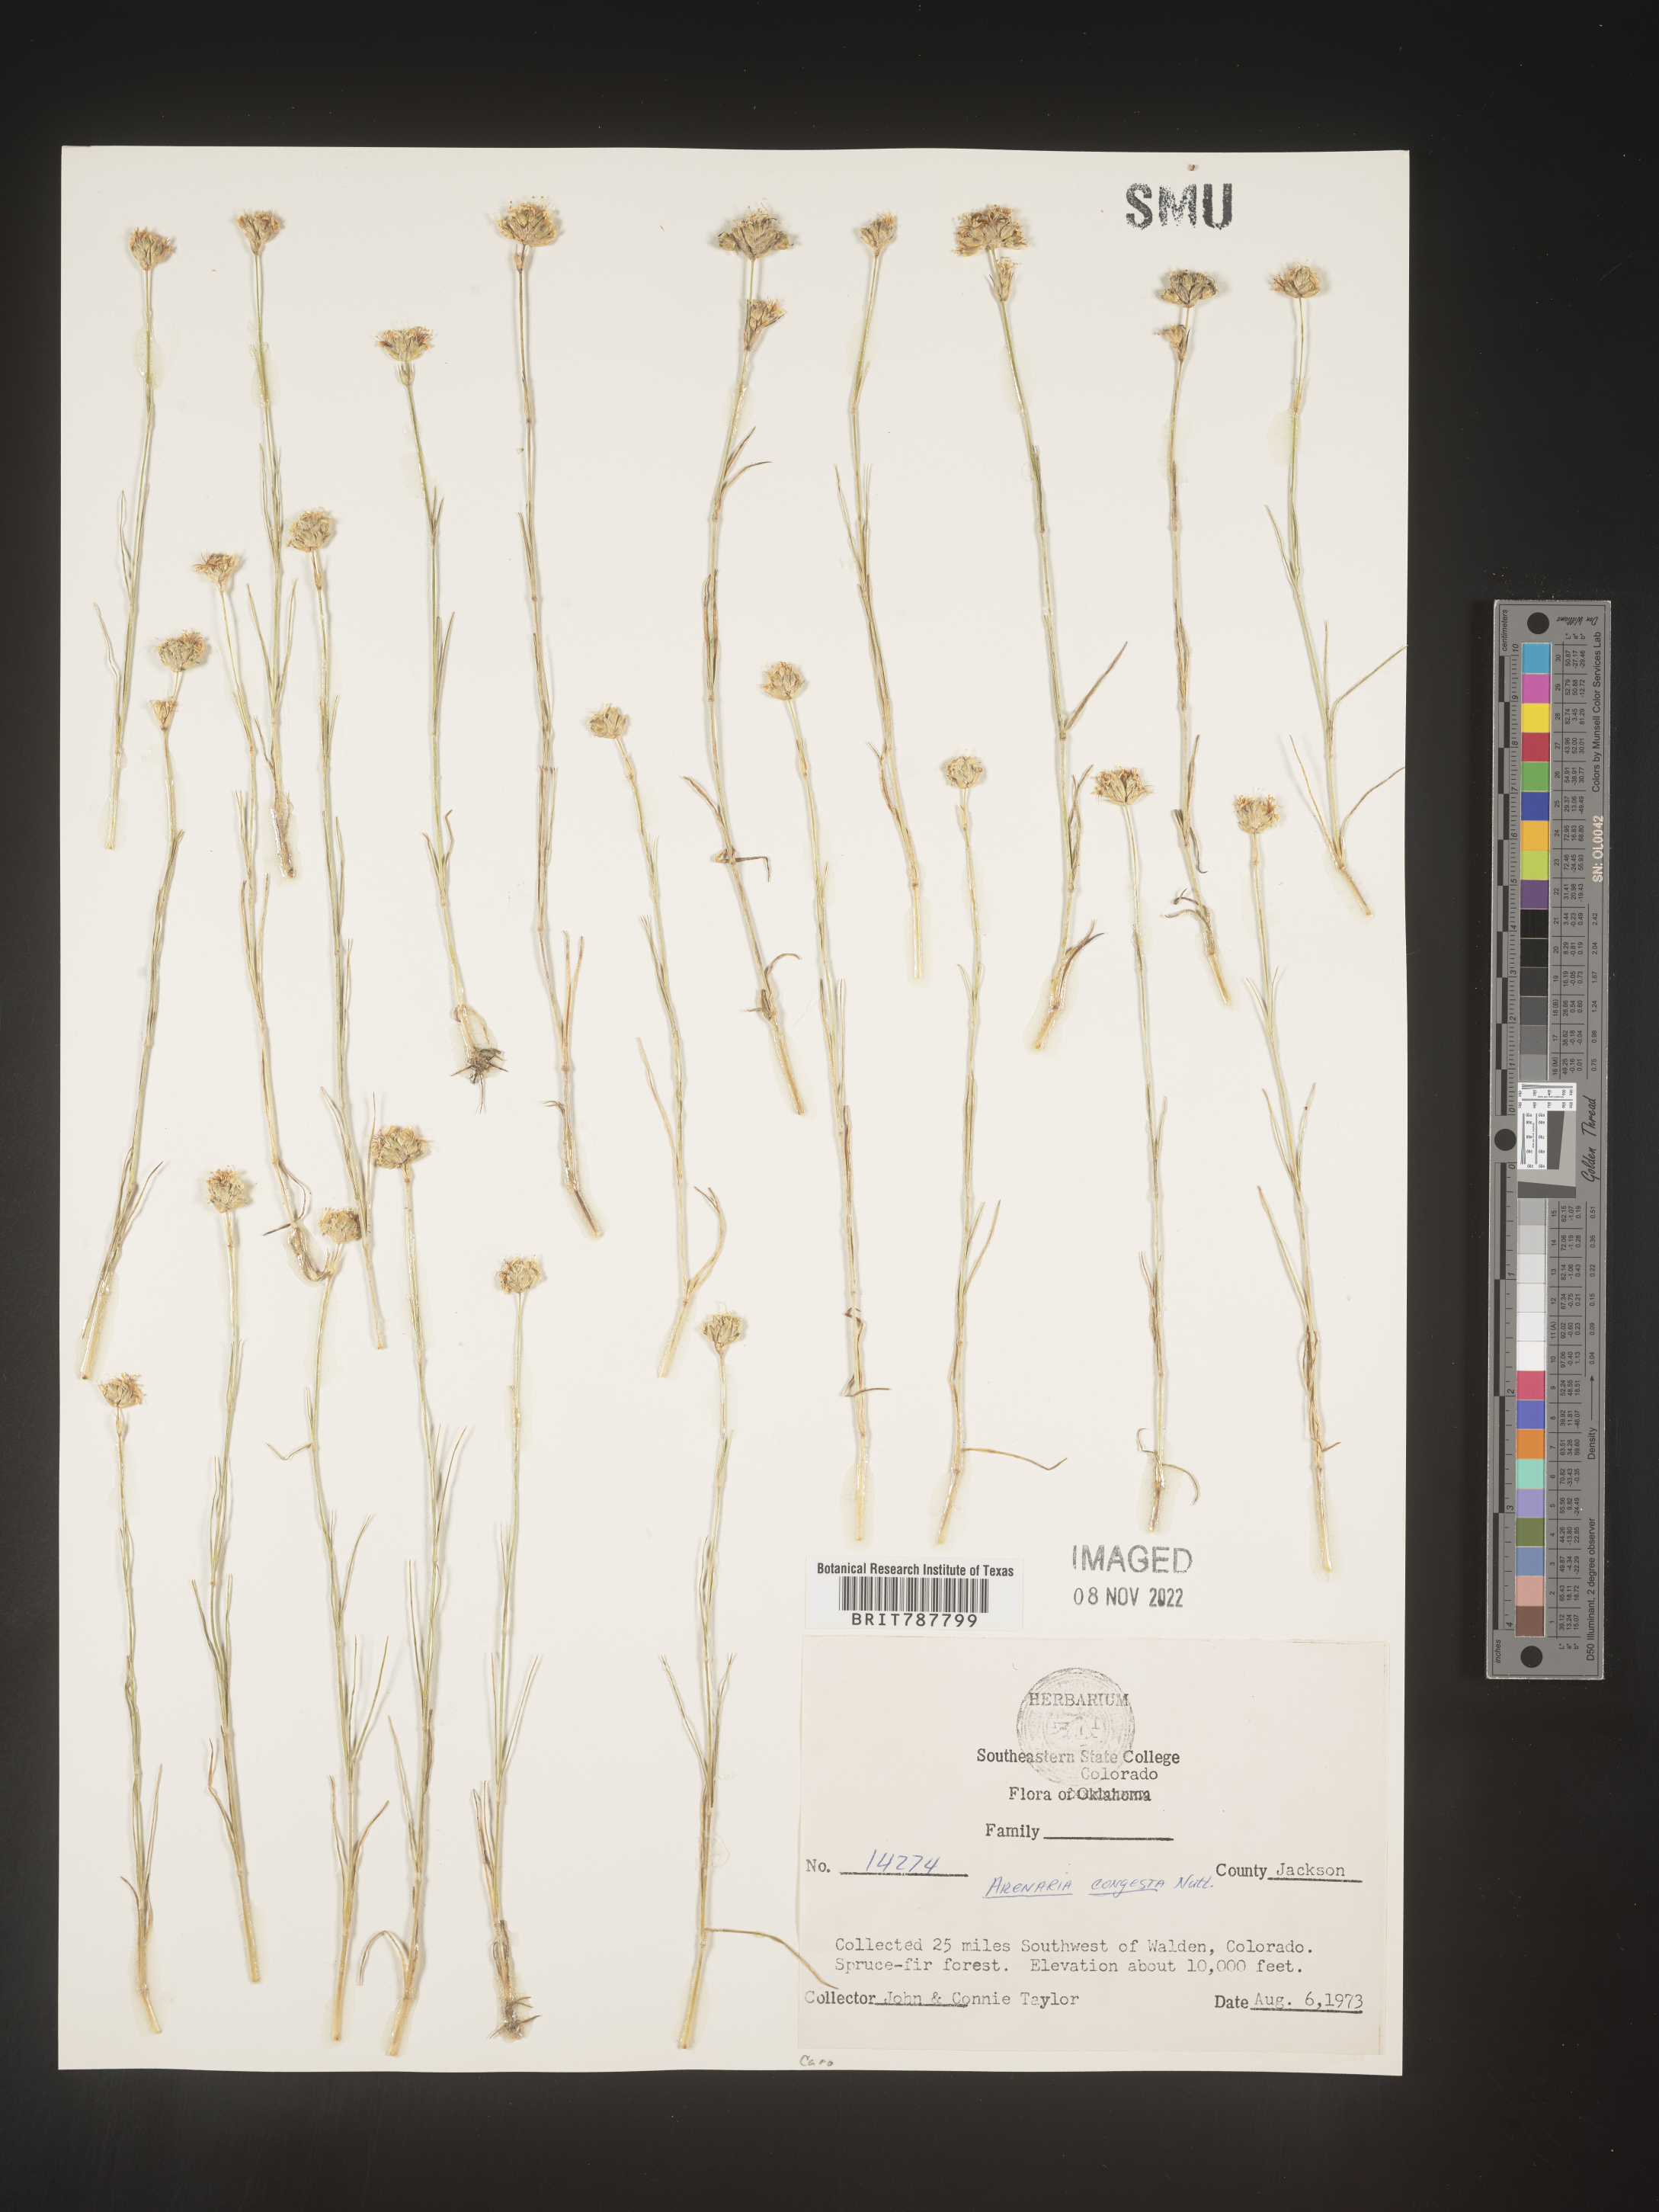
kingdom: Plantae
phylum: Tracheophyta
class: Magnoliopsida
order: Caryophyllales
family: Caryophyllaceae
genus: Eremogone
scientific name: Eremogone congesta
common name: Ballhead sandwort
